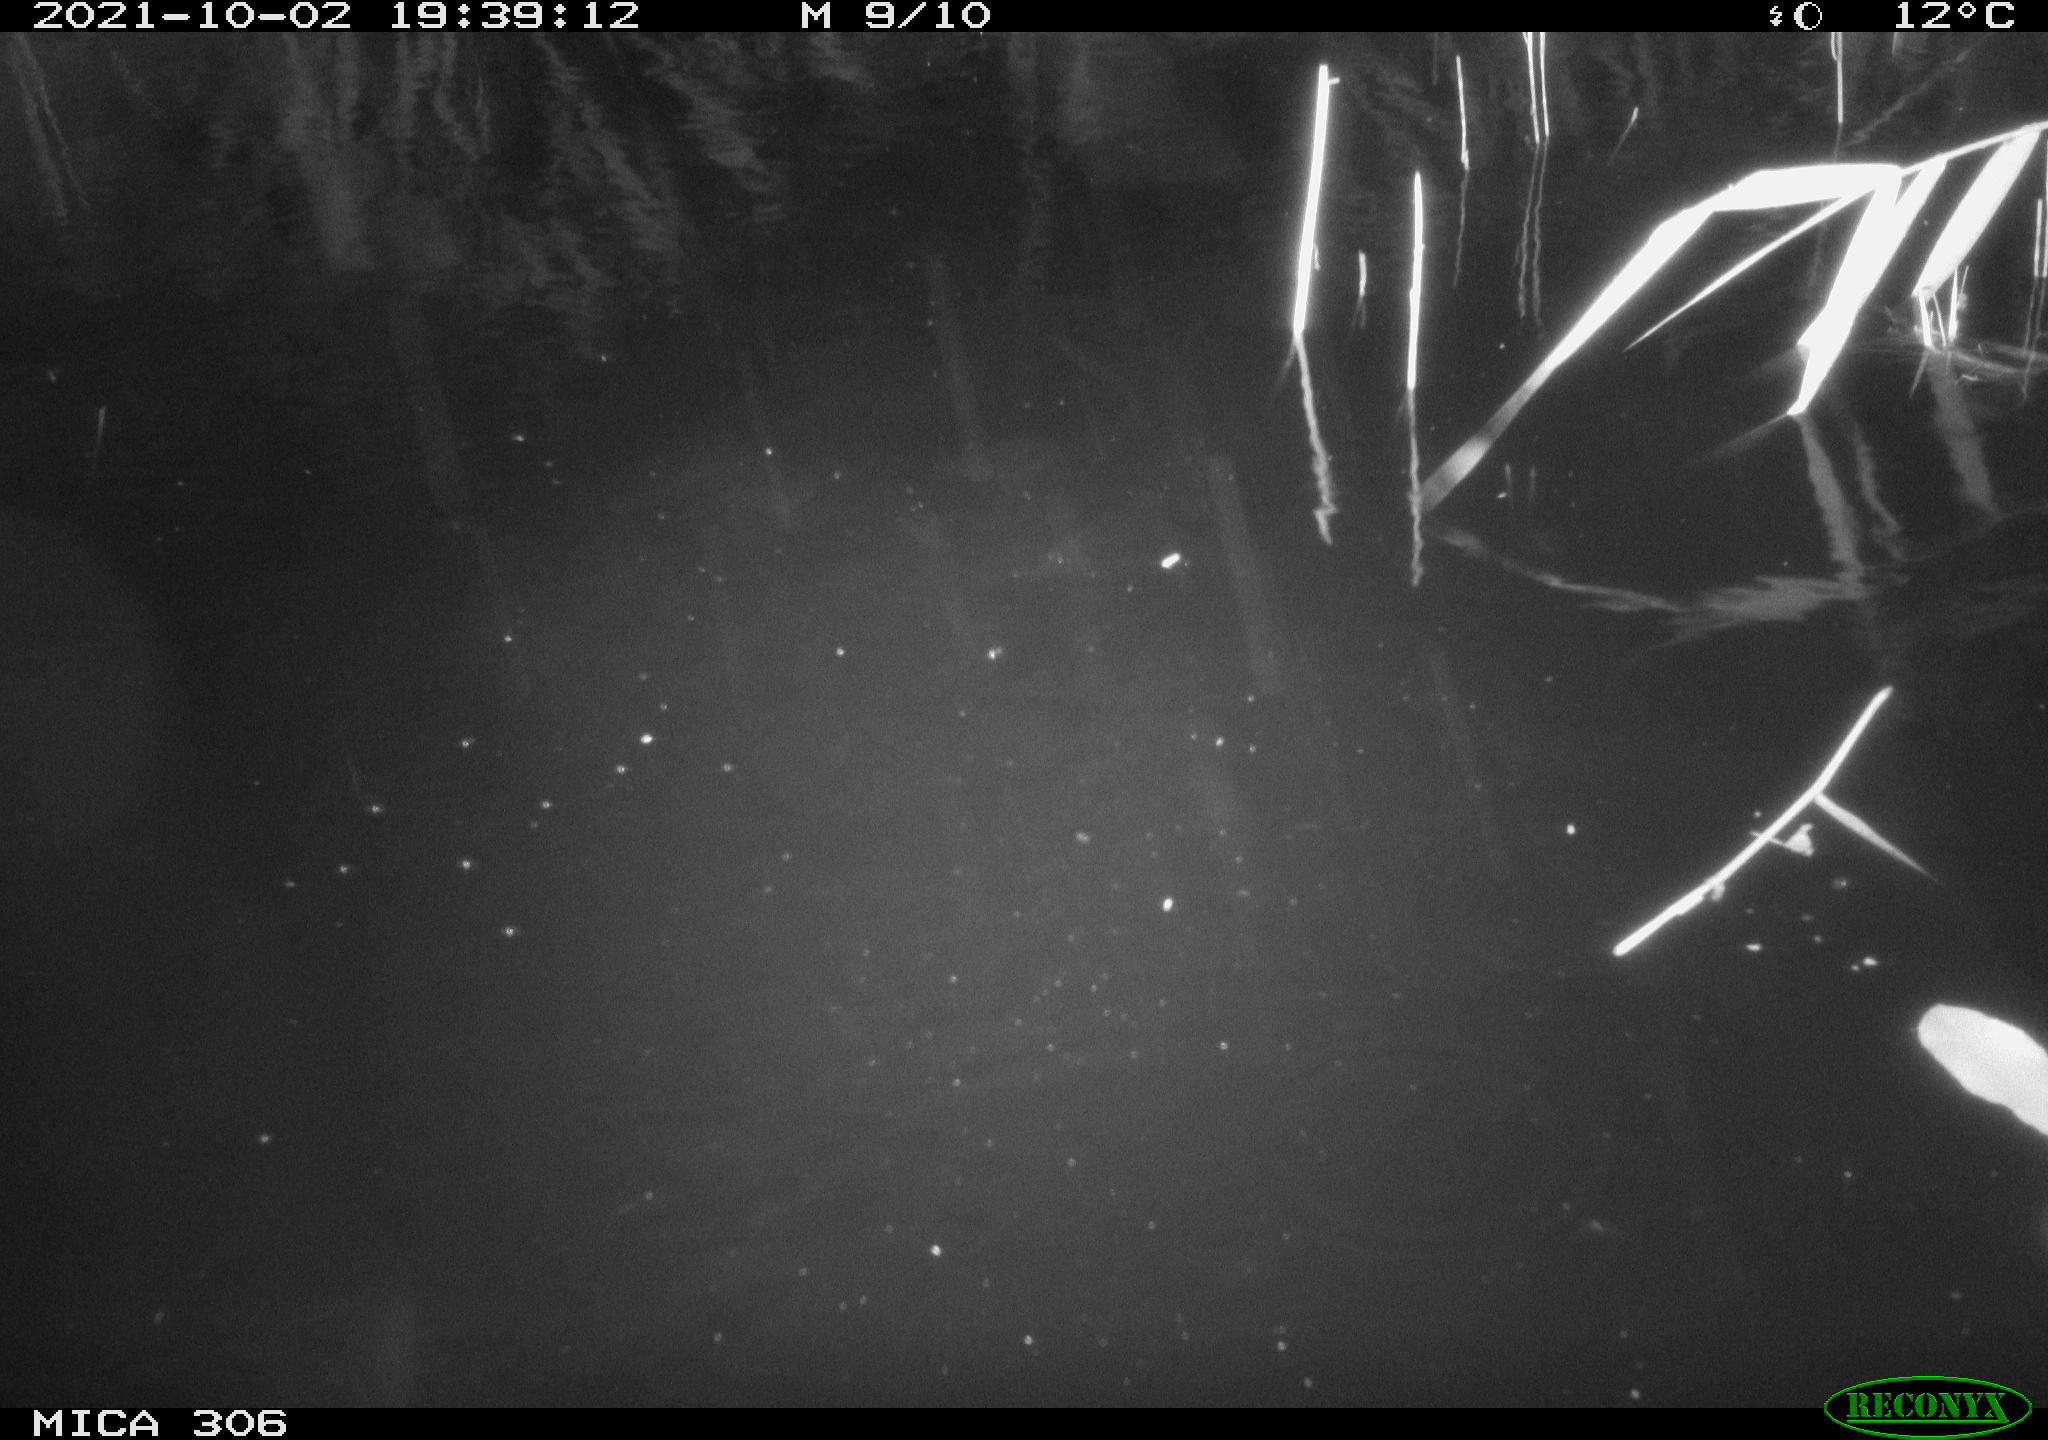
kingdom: Animalia
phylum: Chordata
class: Aves
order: Gruiformes
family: Rallidae
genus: Gallinula
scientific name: Gallinula chloropus
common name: Common moorhen
